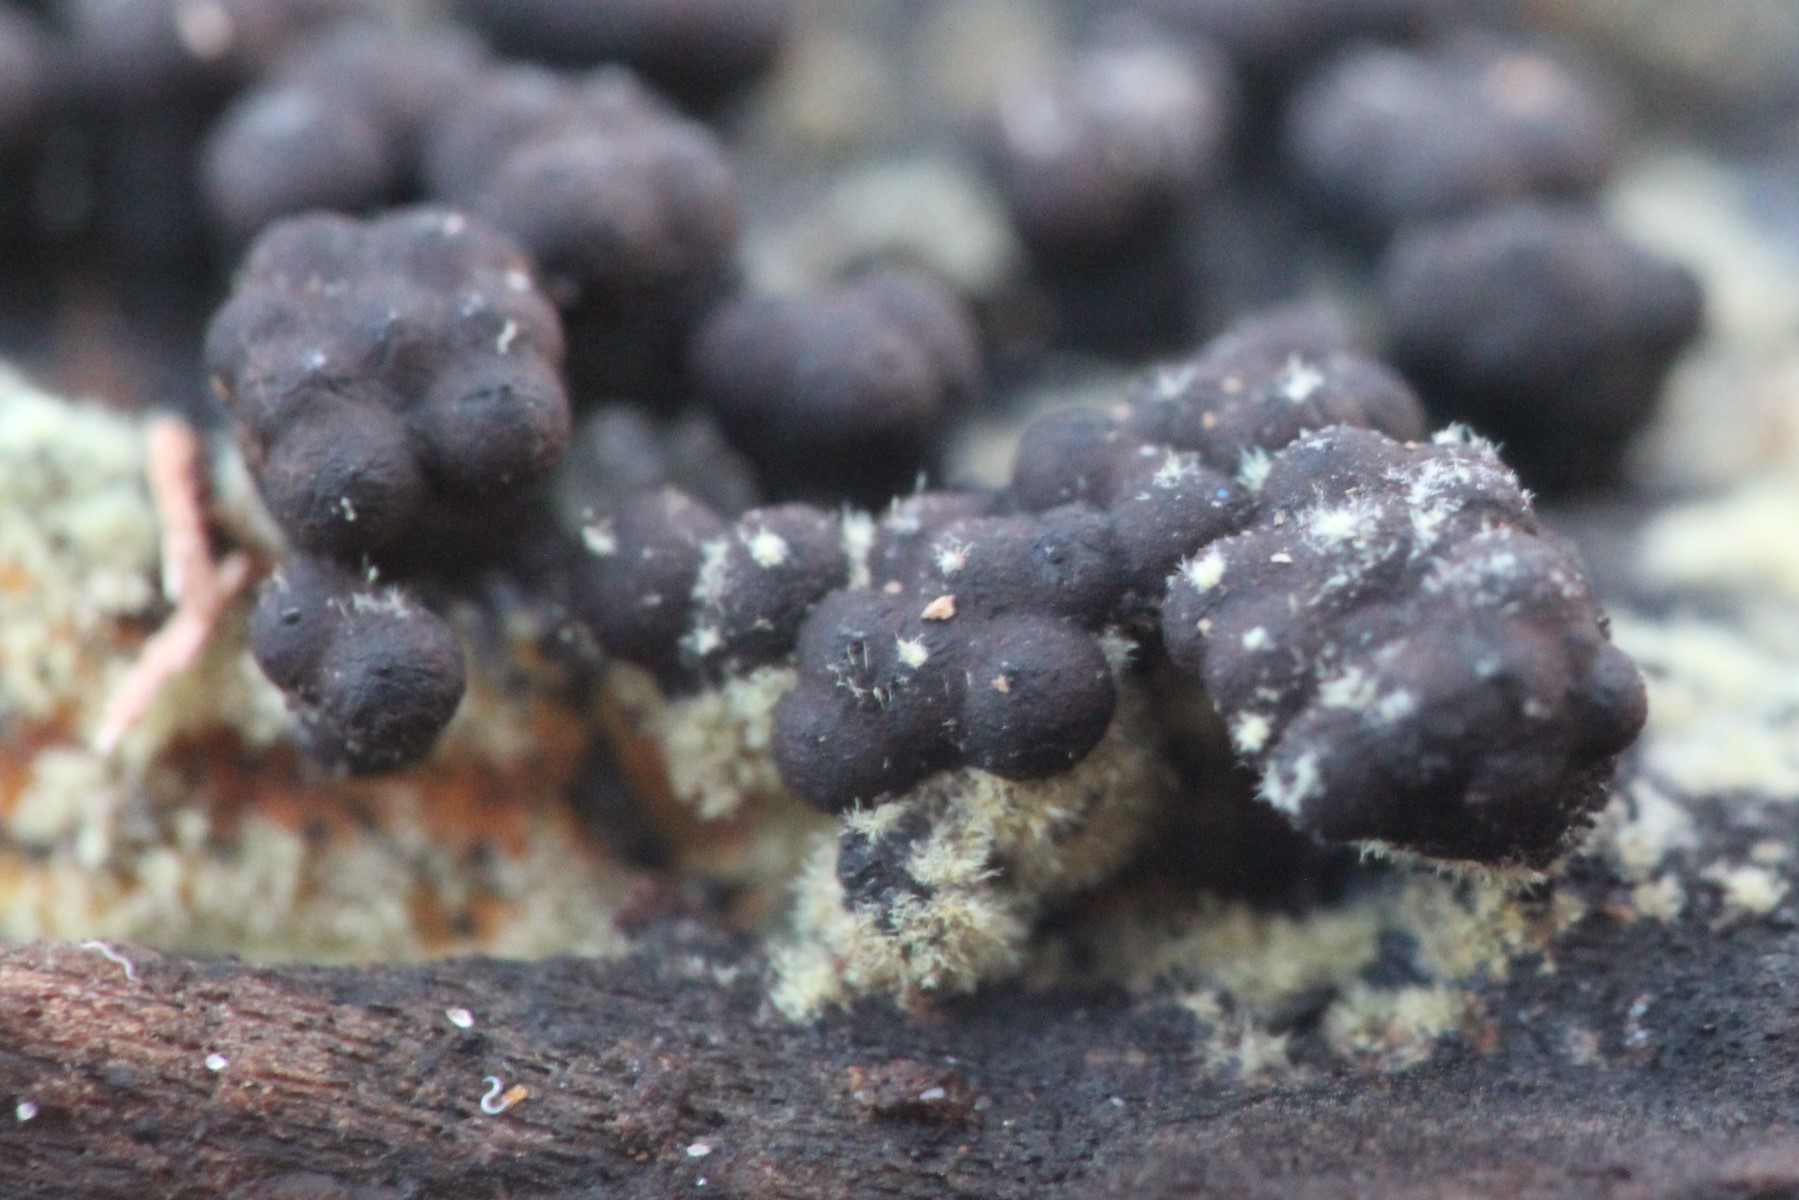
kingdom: Fungi
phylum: Ascomycota
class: Sordariomycetes
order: Xylariales
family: Hypoxylaceae
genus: Jackrogersella
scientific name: Jackrogersella cohaerens
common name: sammenflydende kulbær
